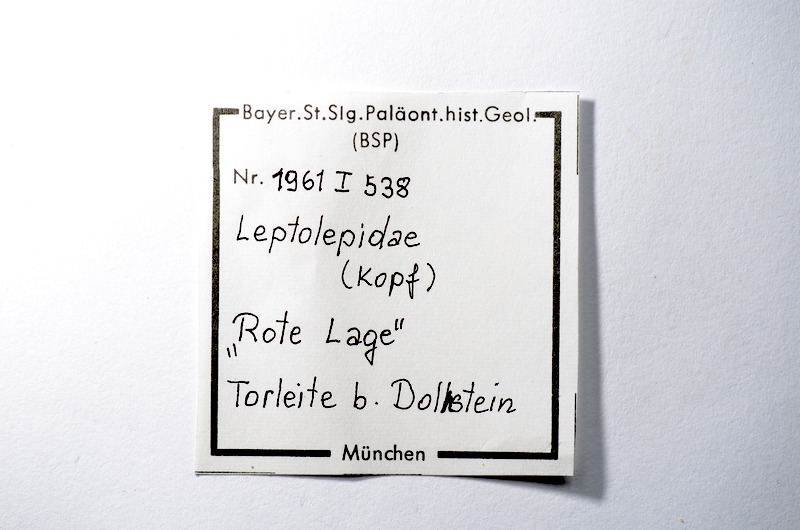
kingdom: Animalia
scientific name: Animalia
